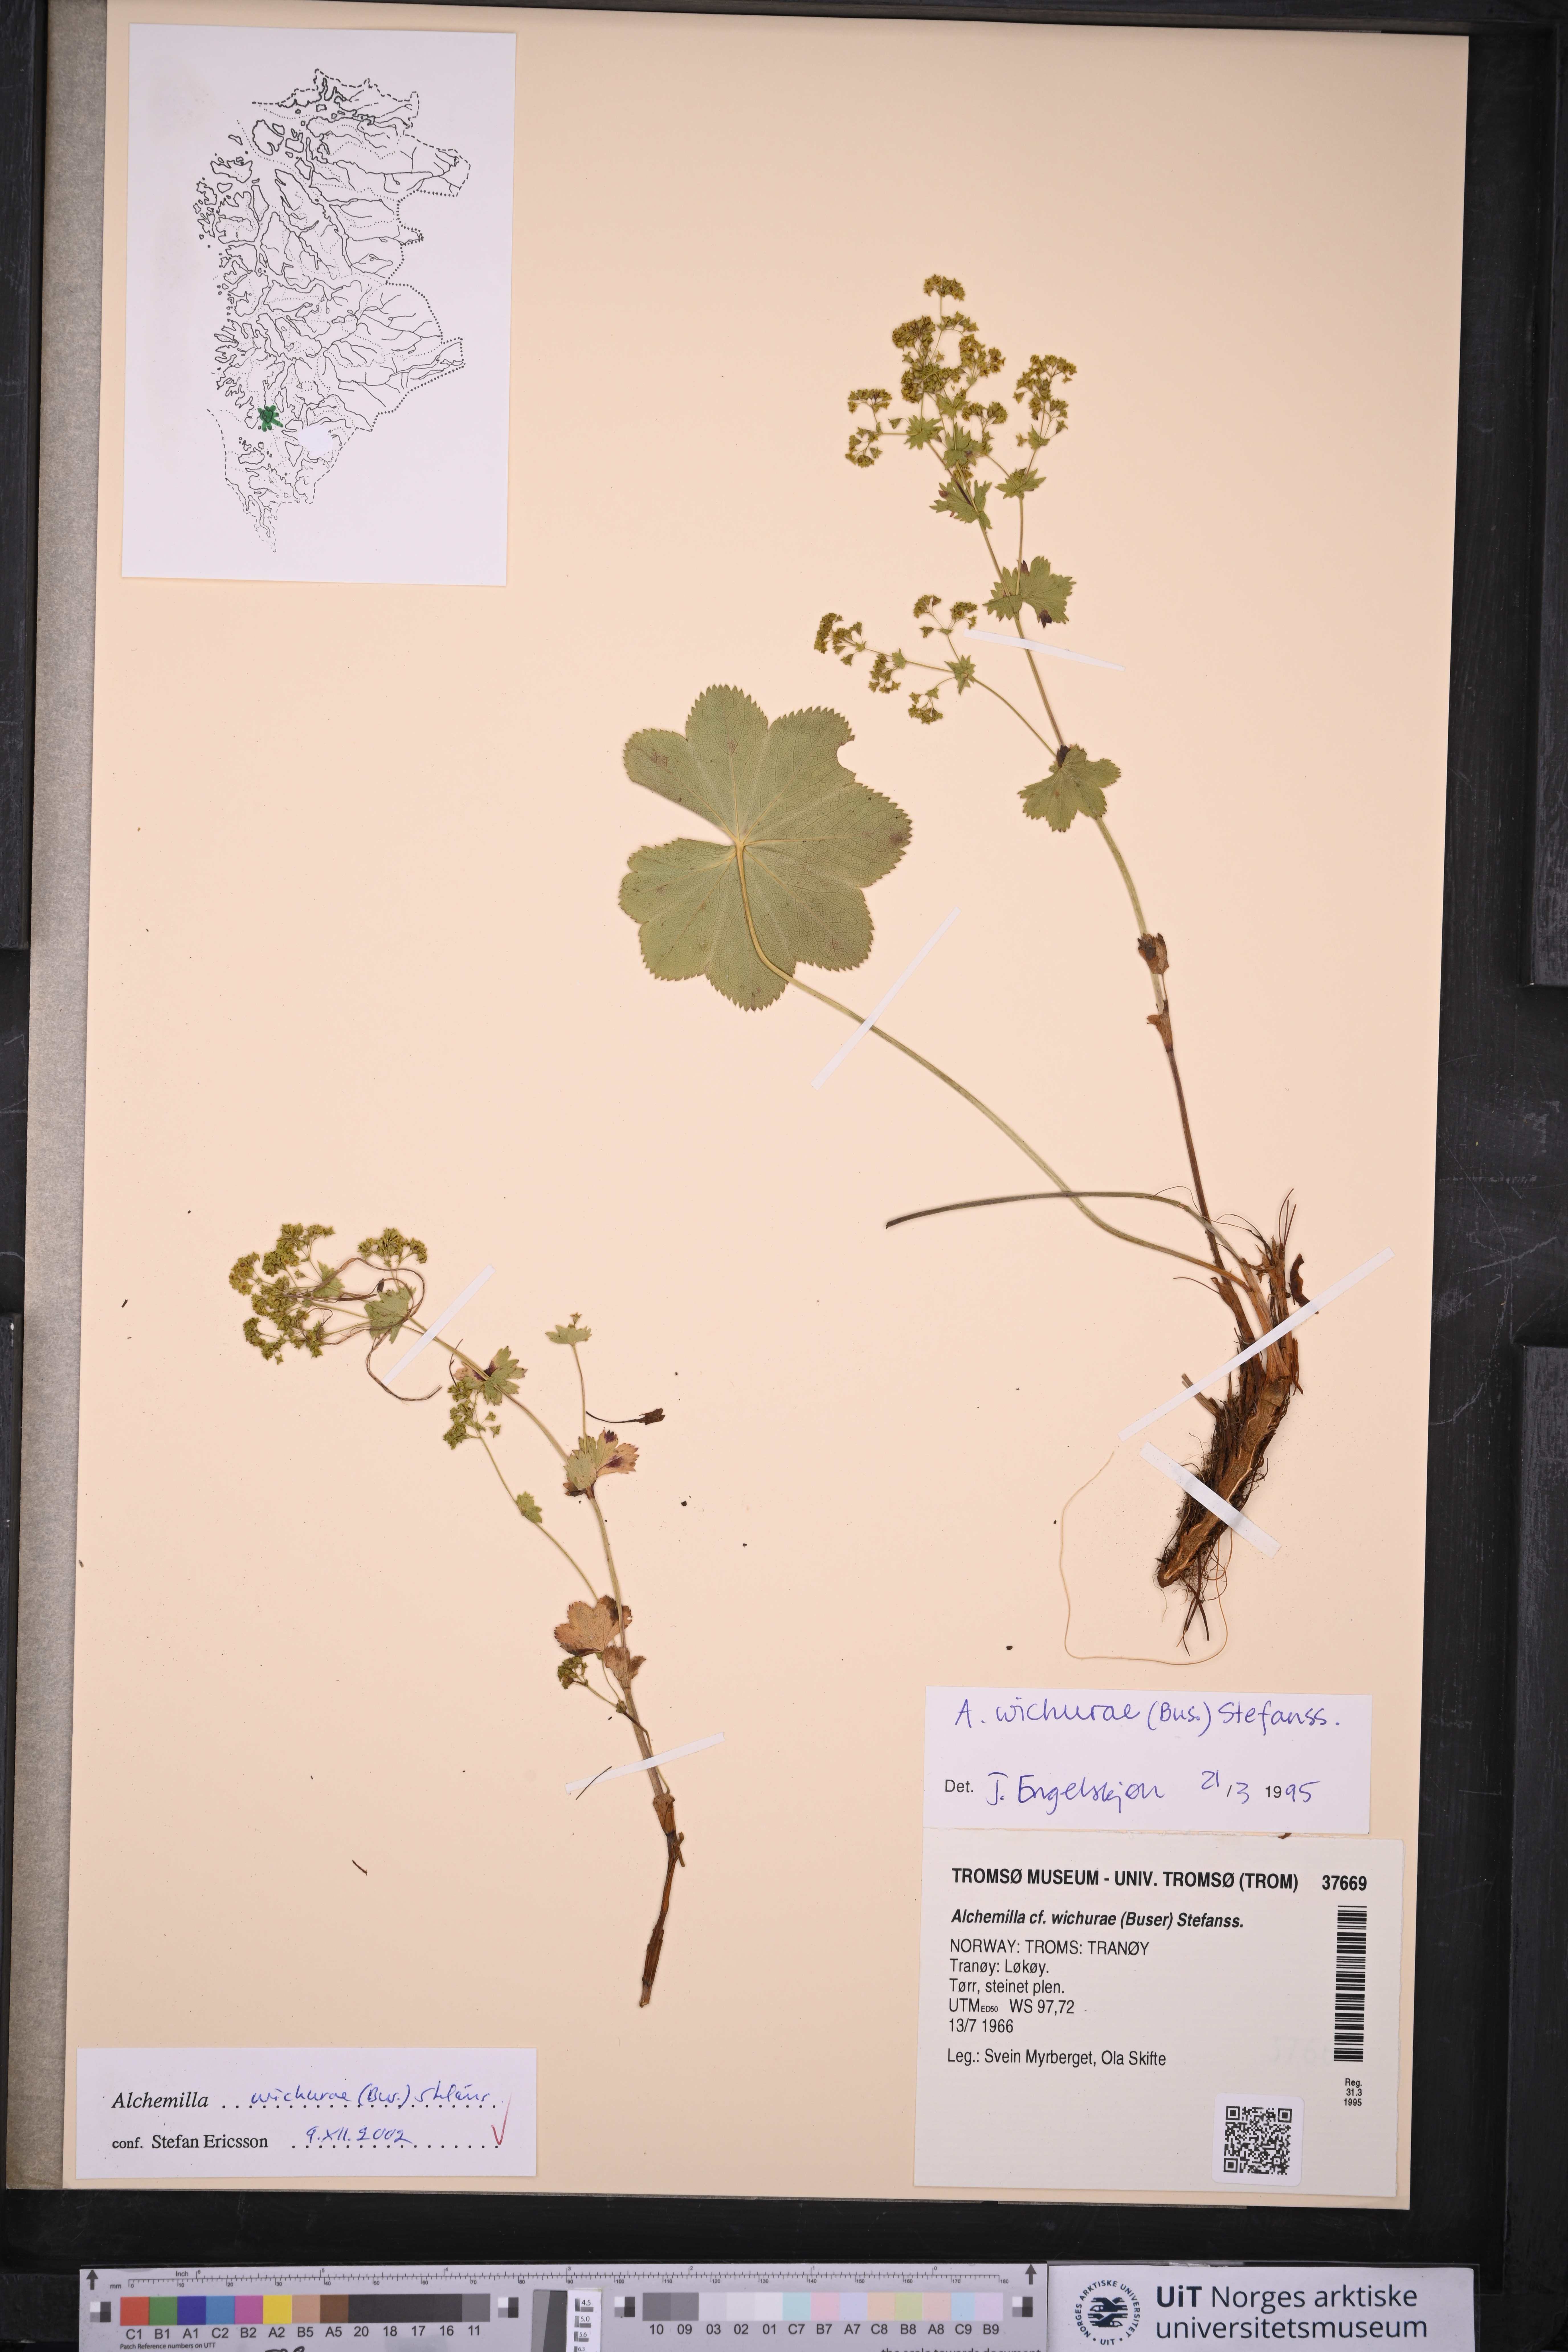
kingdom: Plantae
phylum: Tracheophyta
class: Magnoliopsida
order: Rosales
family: Rosaceae
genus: Alchemilla
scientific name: Alchemilla wichurae
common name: Rock lady's mantle
